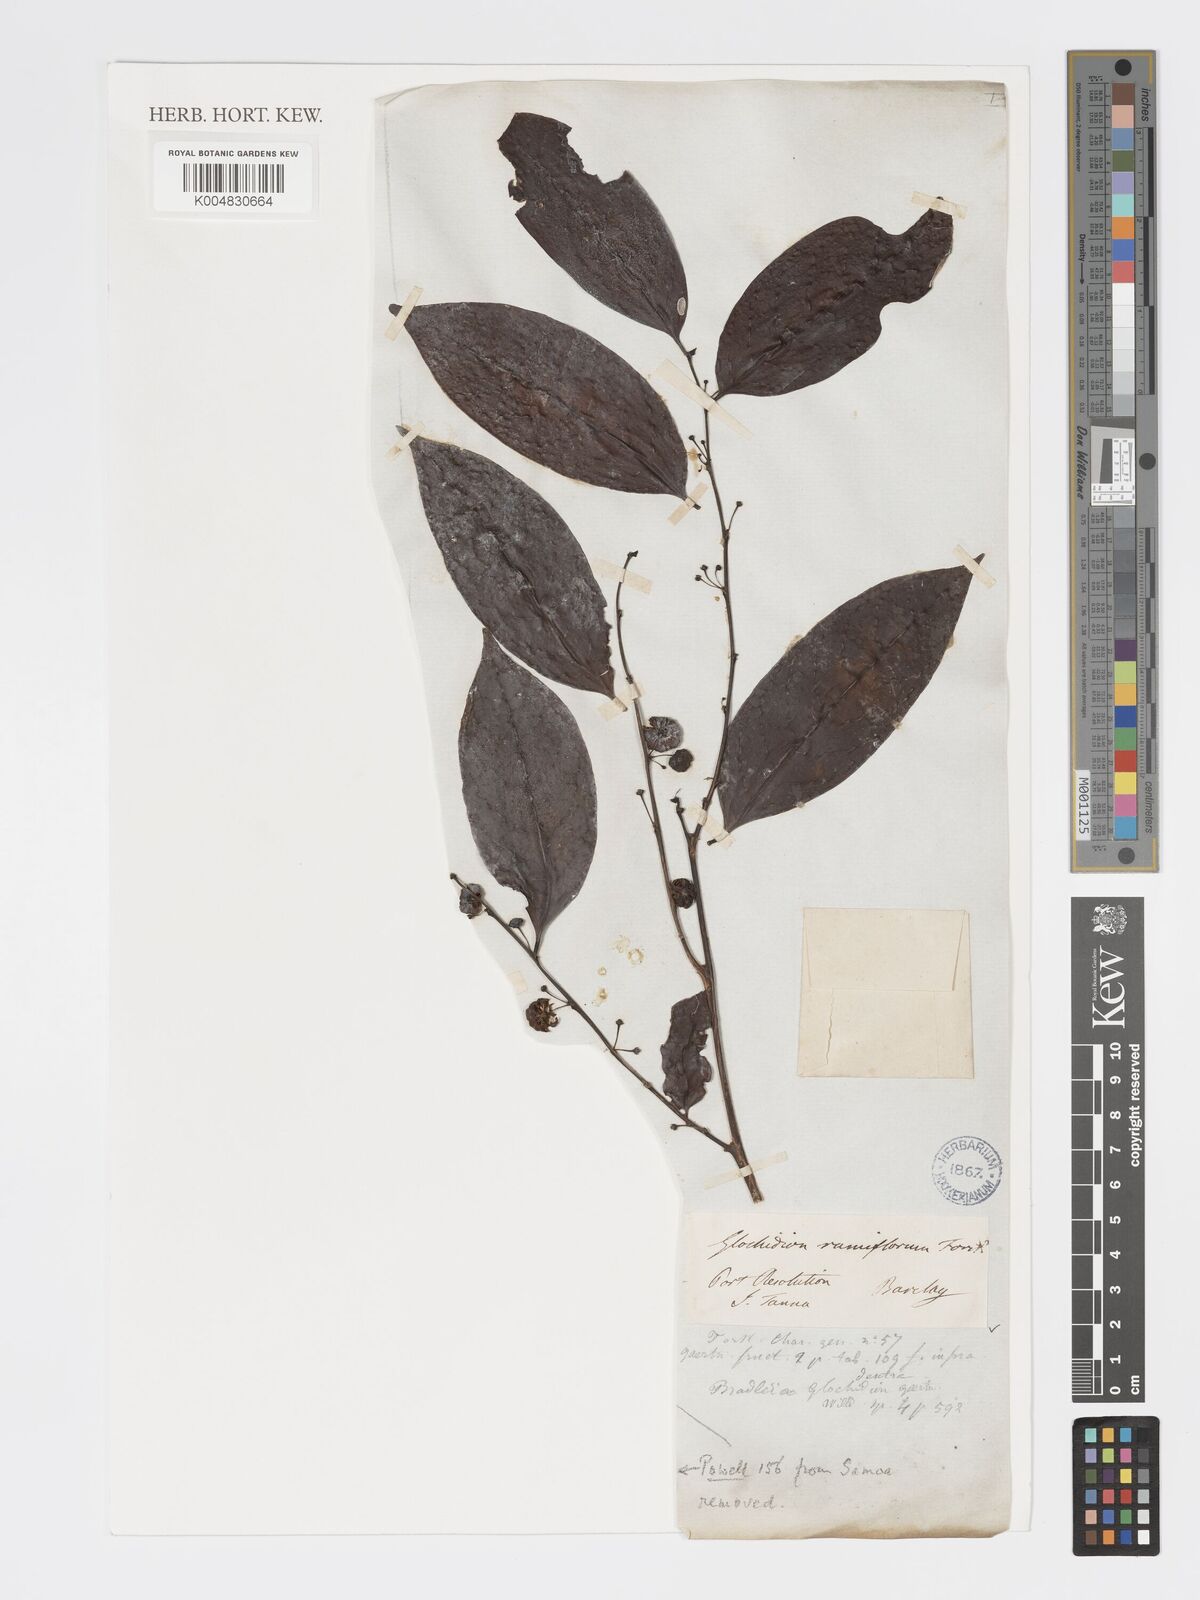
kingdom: Plantae
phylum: Tracheophyta
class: Magnoliopsida
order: Malpighiales
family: Phyllanthaceae
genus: Glochidion
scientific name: Glochidion ramiflorum
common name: Masame
